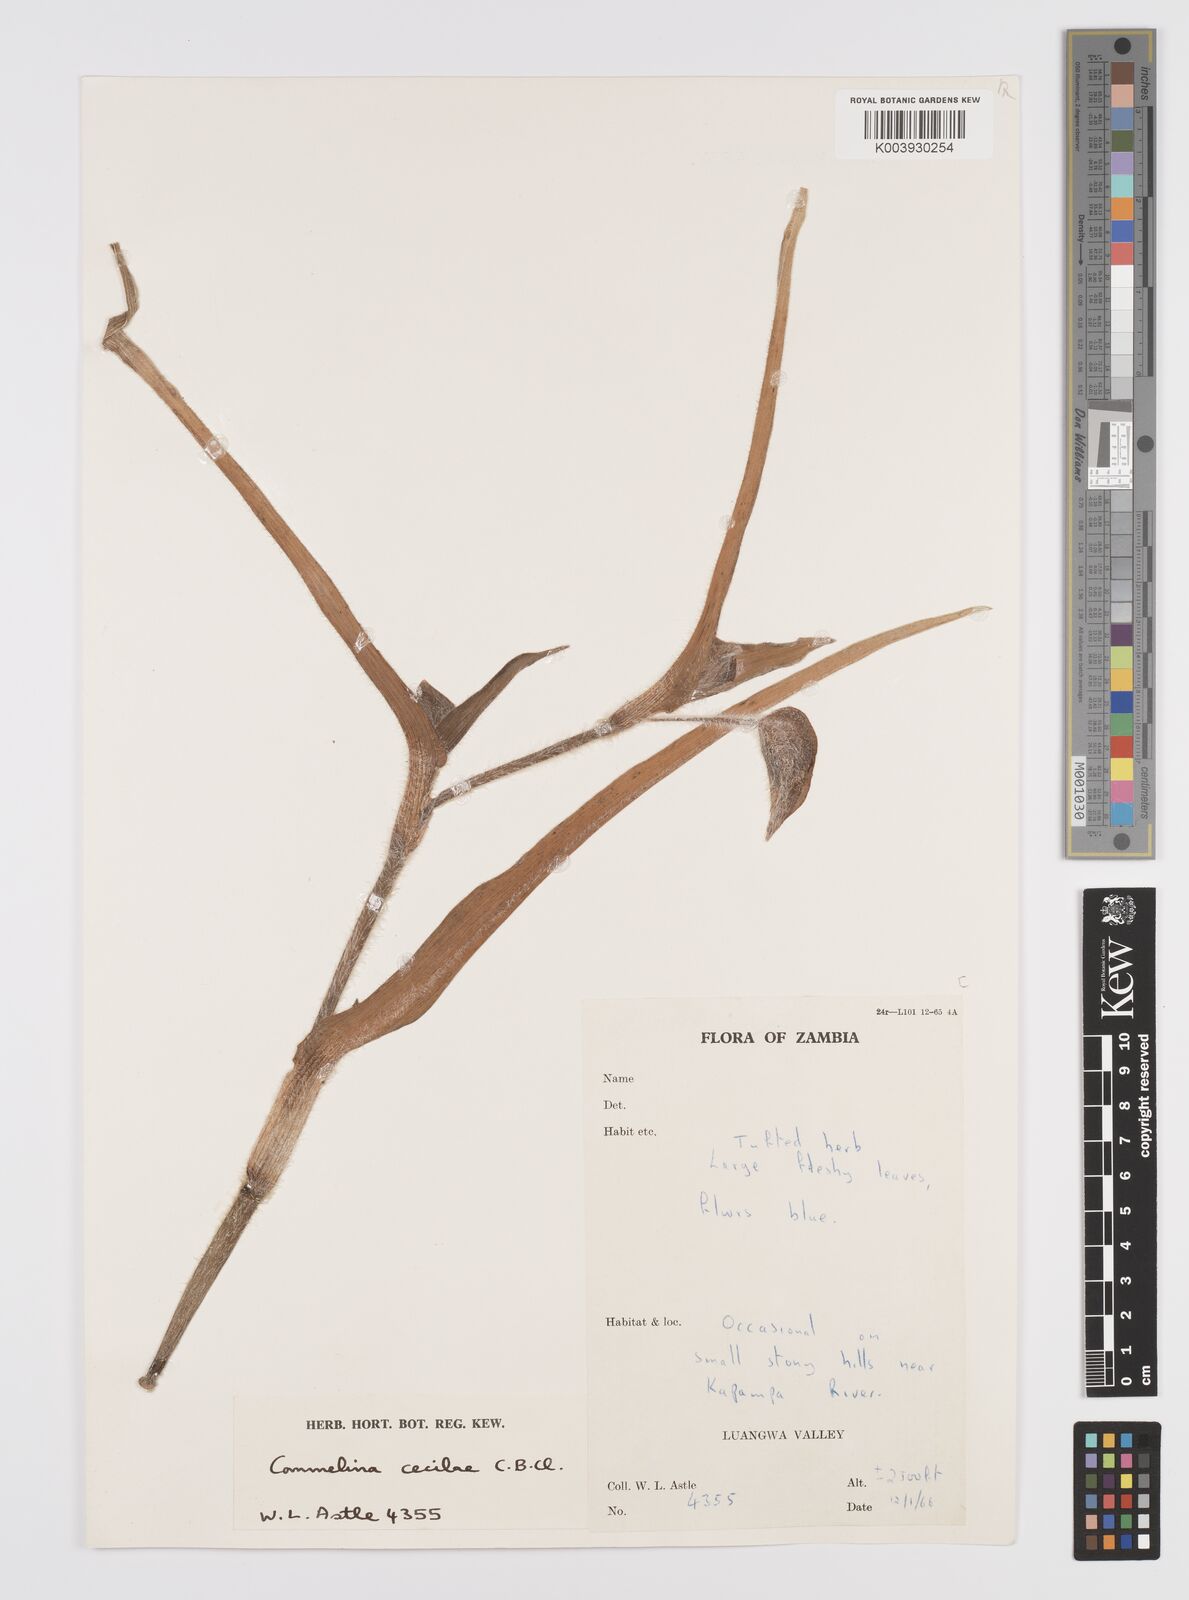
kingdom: Plantae
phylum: Tracheophyta
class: Liliopsida
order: Commelinales
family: Commelinaceae
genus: Commelina
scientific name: Commelina schweinfurthii
